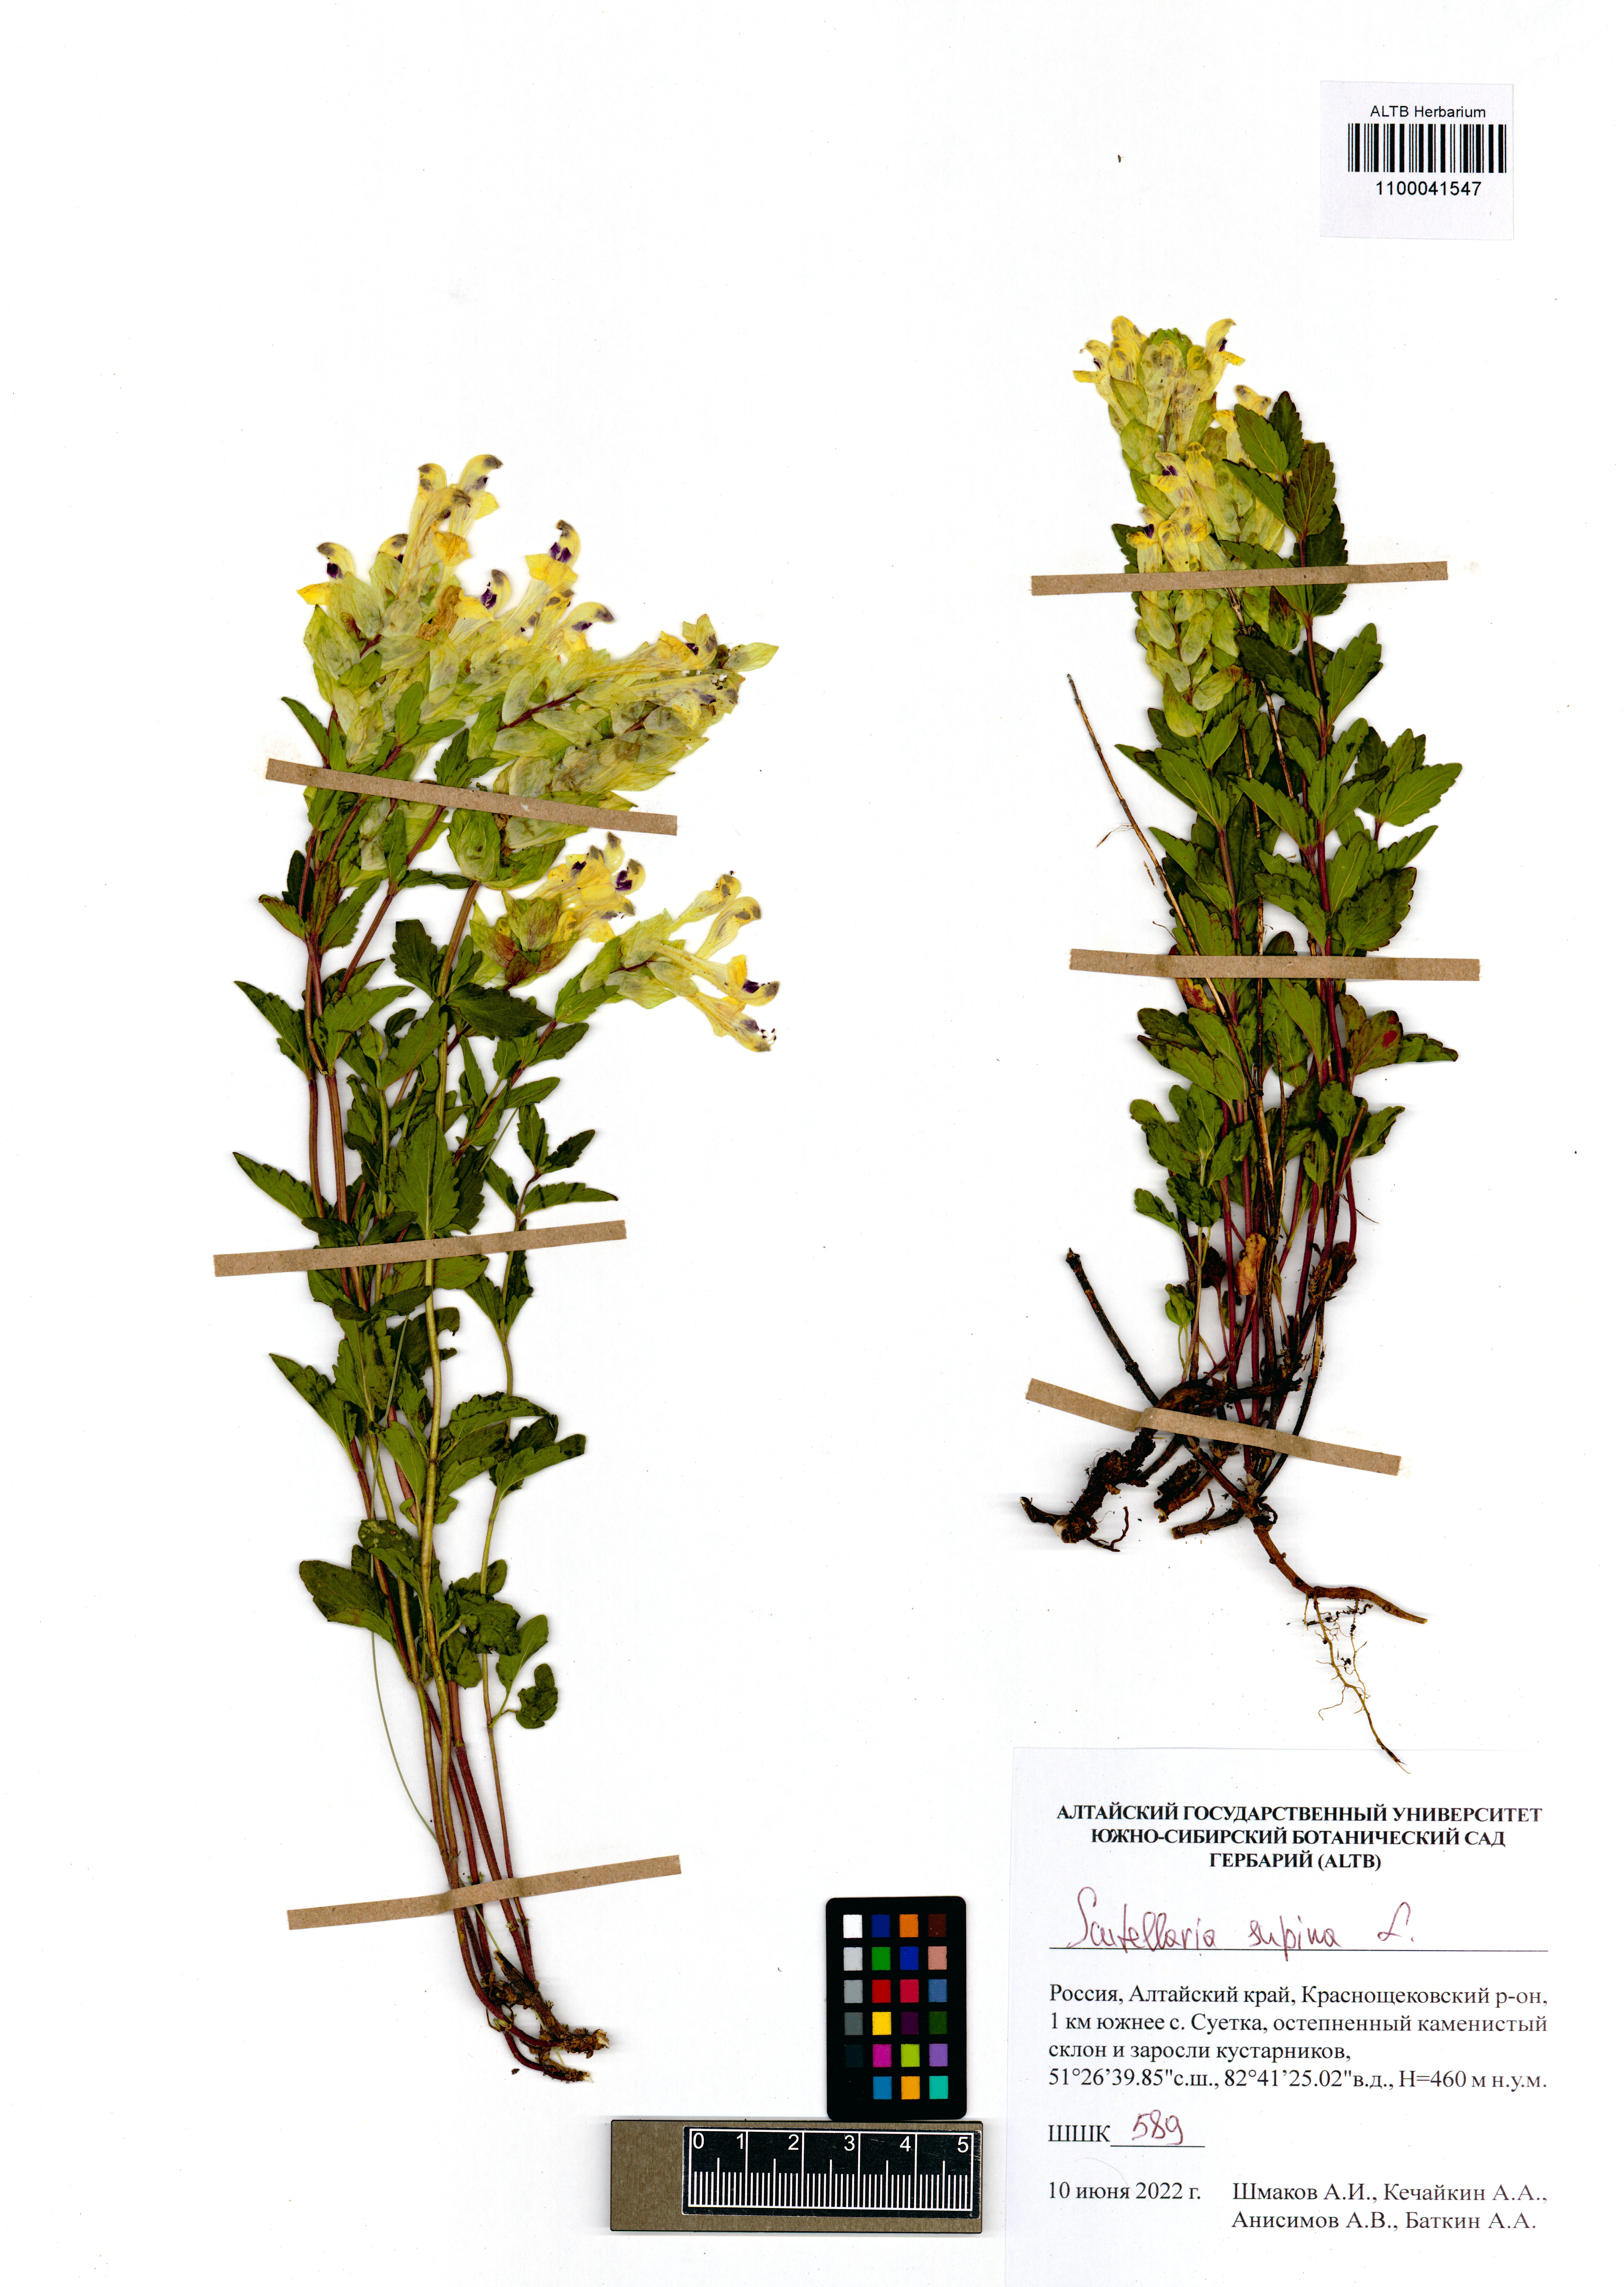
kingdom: Plantae
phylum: Tracheophyta
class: Magnoliopsida
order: Lamiales
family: Lamiaceae
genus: Scutellaria
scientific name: Scutellaria supina
